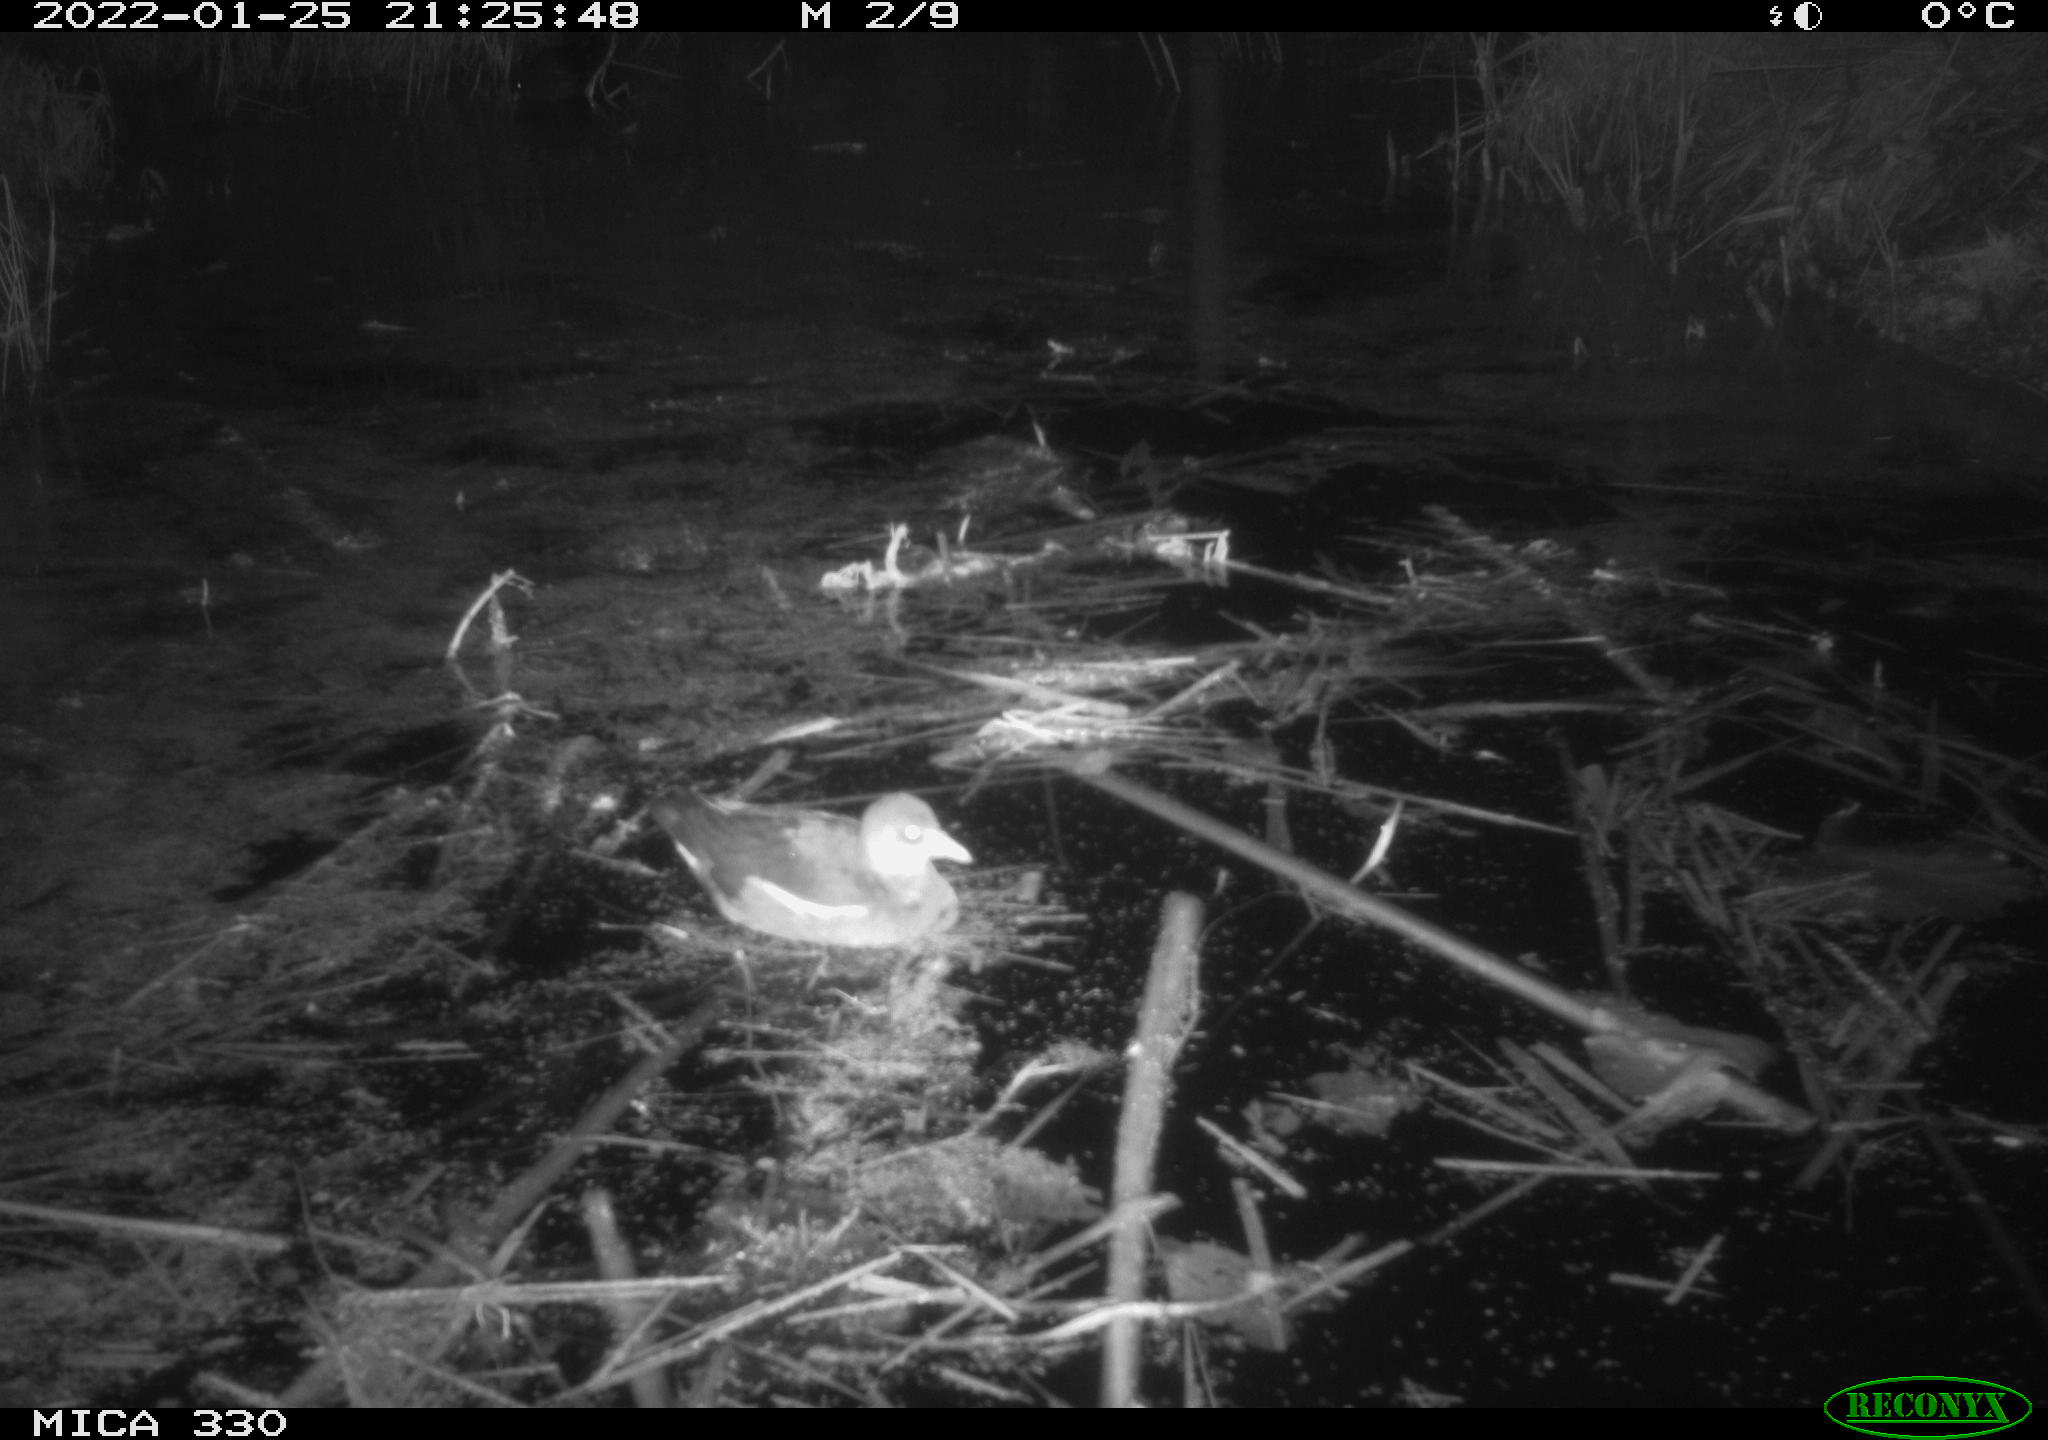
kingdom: Animalia
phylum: Chordata
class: Aves
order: Gruiformes
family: Rallidae
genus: Gallinula
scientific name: Gallinula chloropus
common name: Common moorhen
